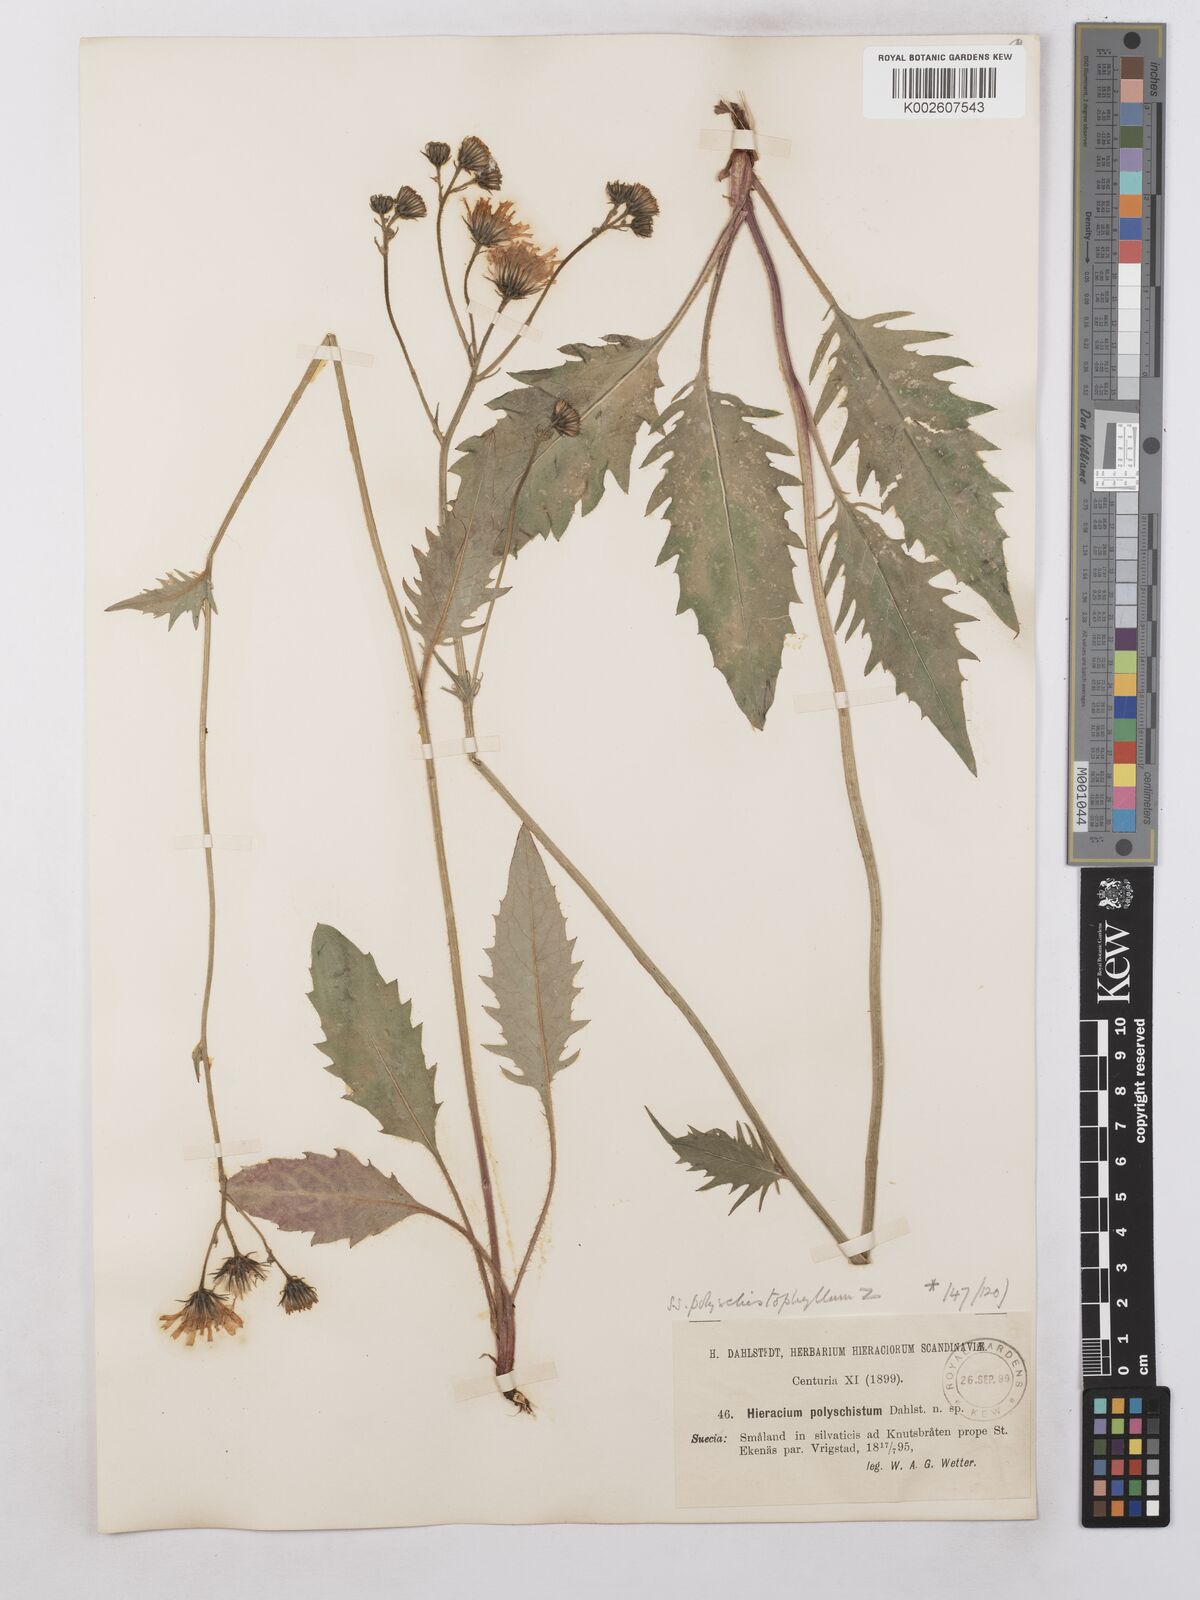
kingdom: Plantae
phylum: Tracheophyta
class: Magnoliopsida
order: Asterales
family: Asteraceae
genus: Hieracium
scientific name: Hieracium caesium
